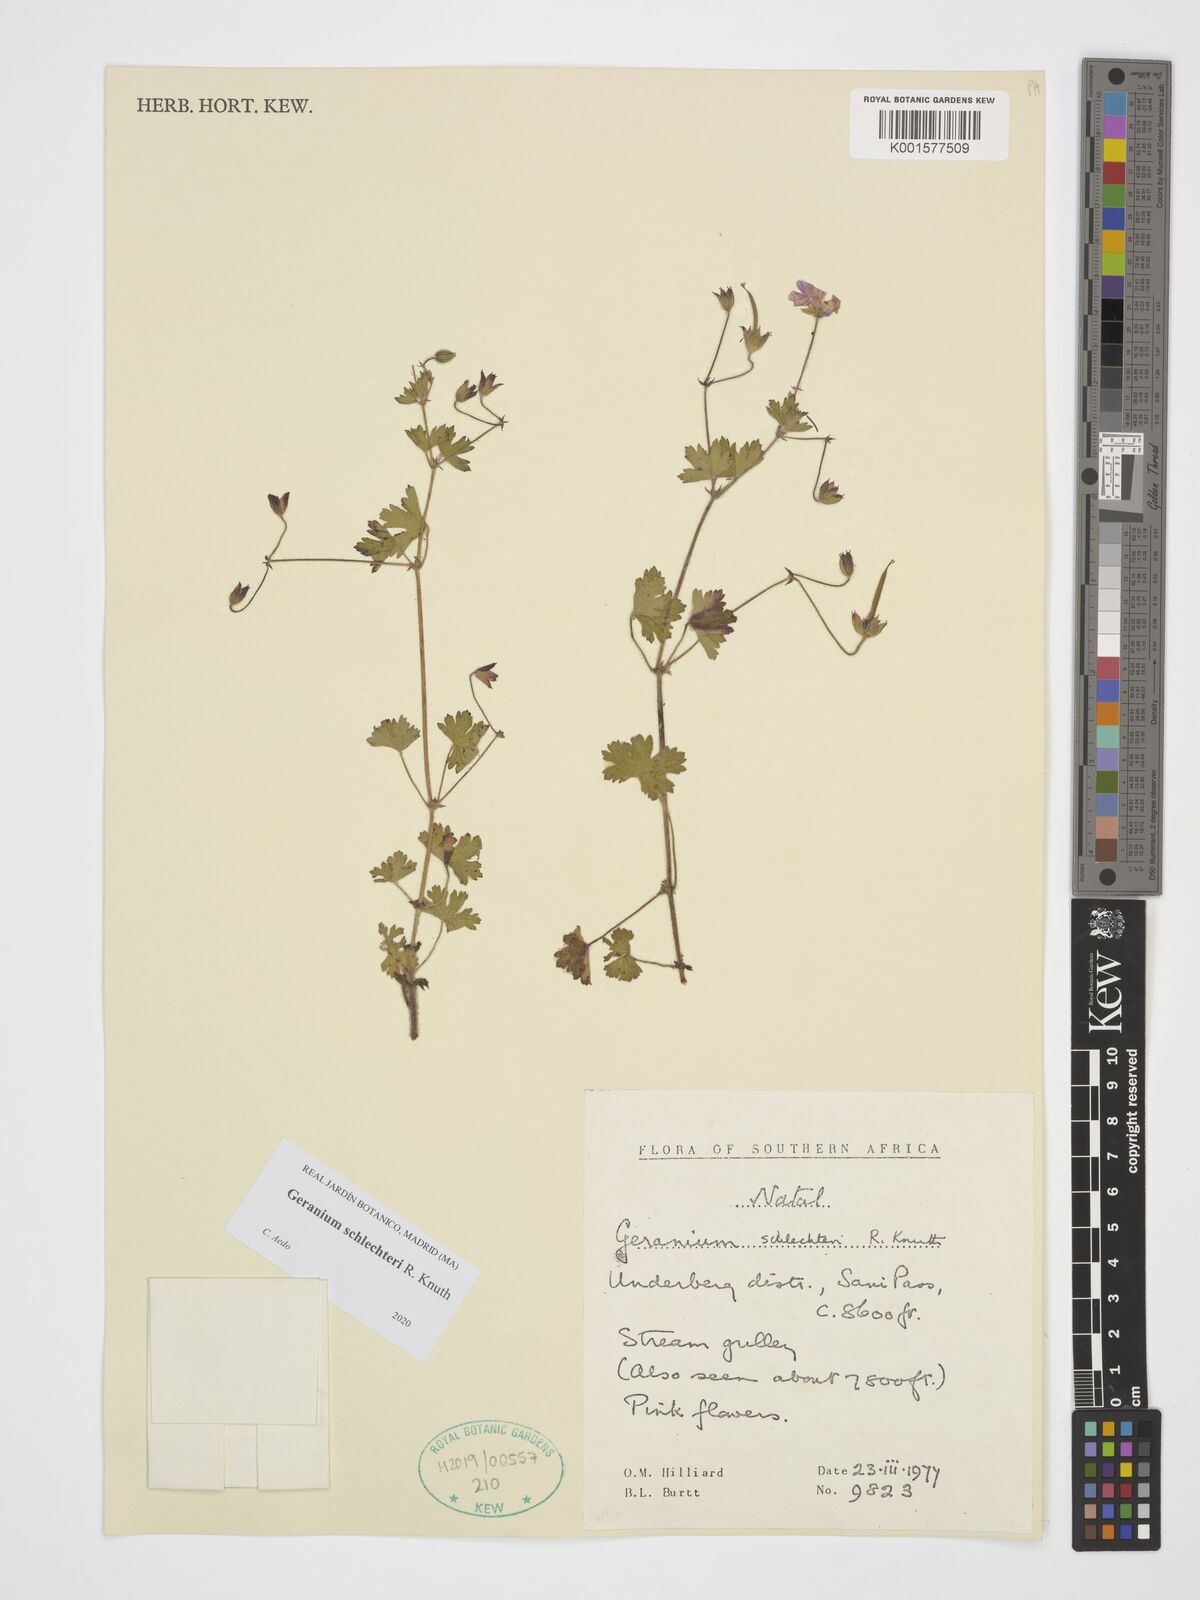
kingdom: Plantae
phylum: Tracheophyta
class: Magnoliopsida
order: Geraniales
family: Geraniaceae
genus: Geranium
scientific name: Geranium schlechteri
